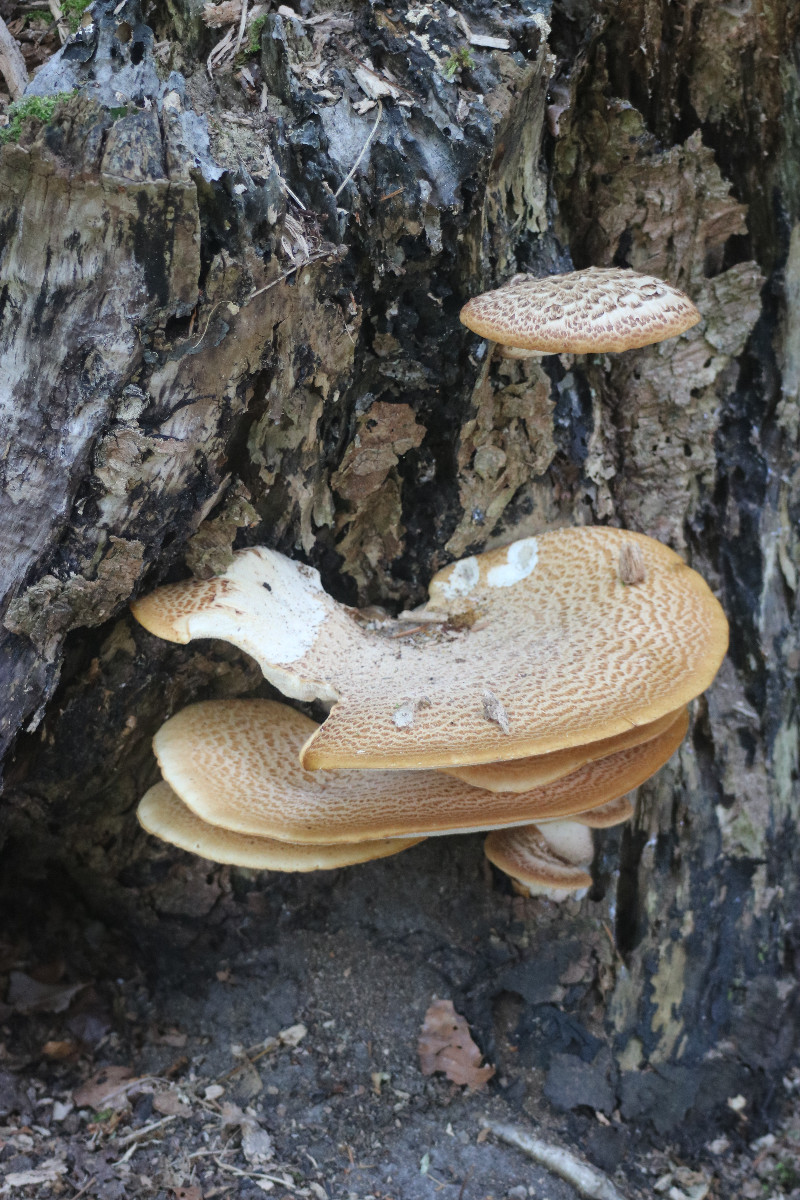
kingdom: Fungi
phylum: Basidiomycota
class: Agaricomycetes
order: Polyporales
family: Polyporaceae
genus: Cerioporus
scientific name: Cerioporus squamosus
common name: skællet stilkporesvamp
